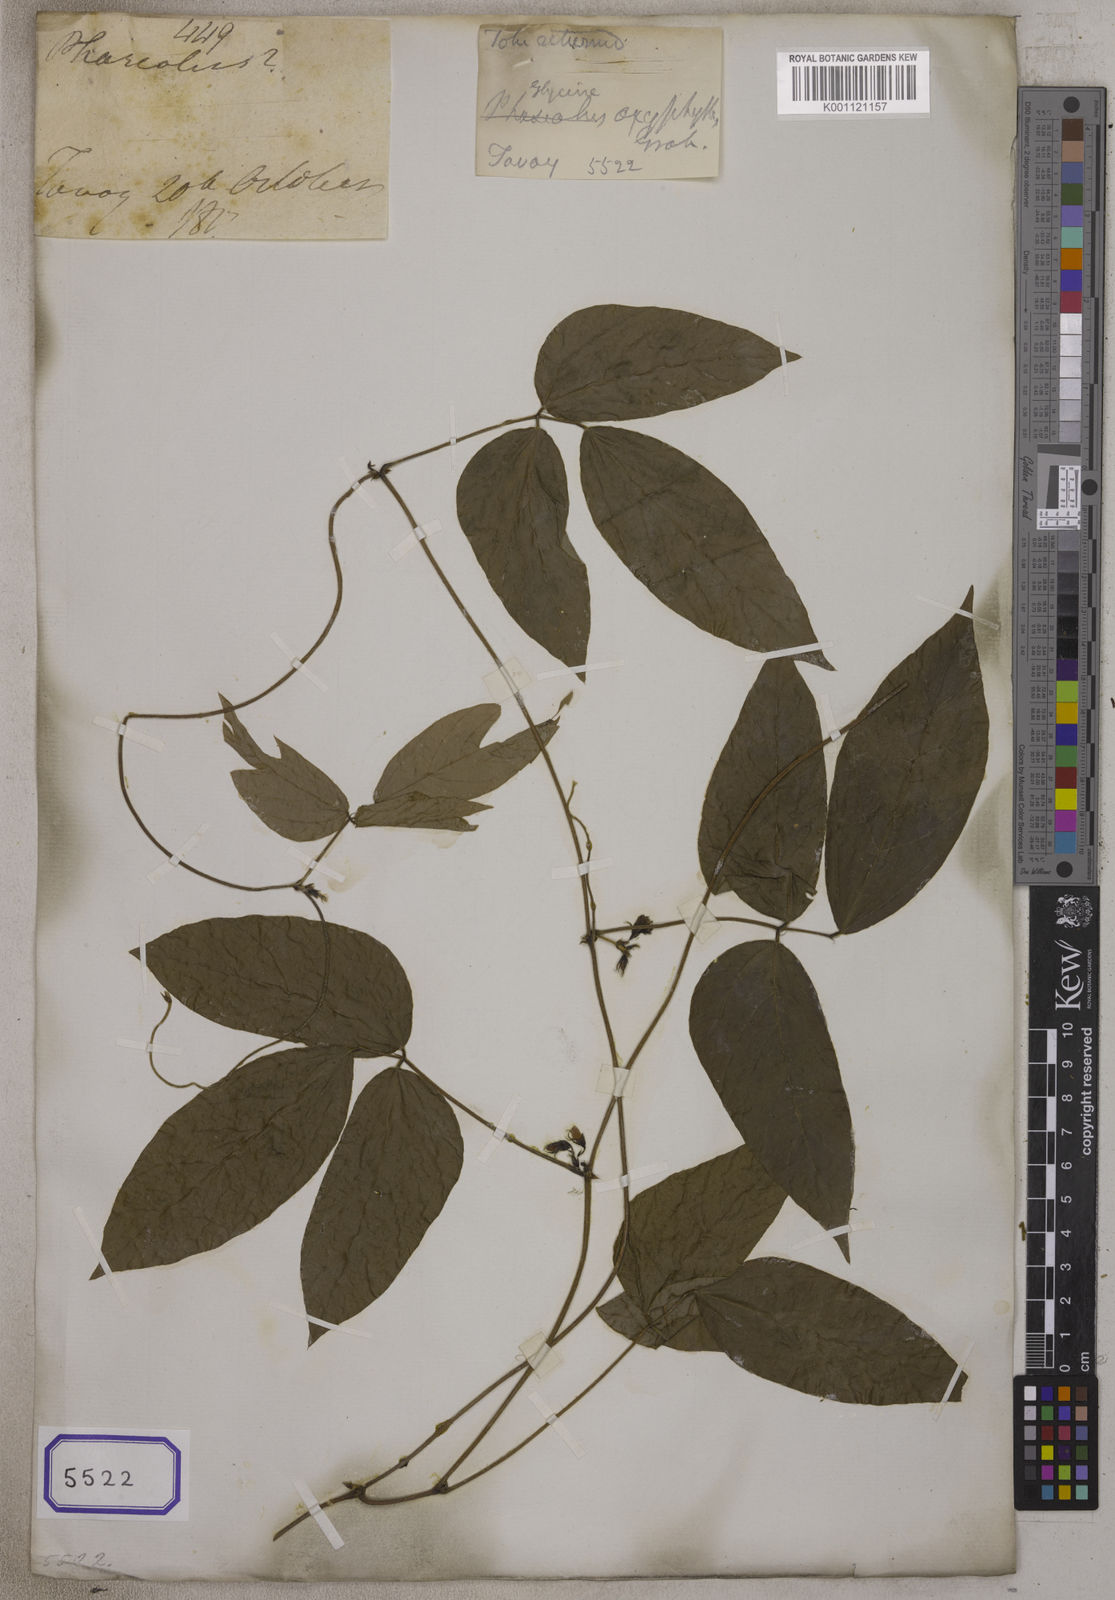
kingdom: Plantae
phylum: Tracheophyta
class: Magnoliopsida
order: Fabales
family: Fabaceae
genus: Sinodolichos
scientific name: Sinodolichos oxyphyllus
